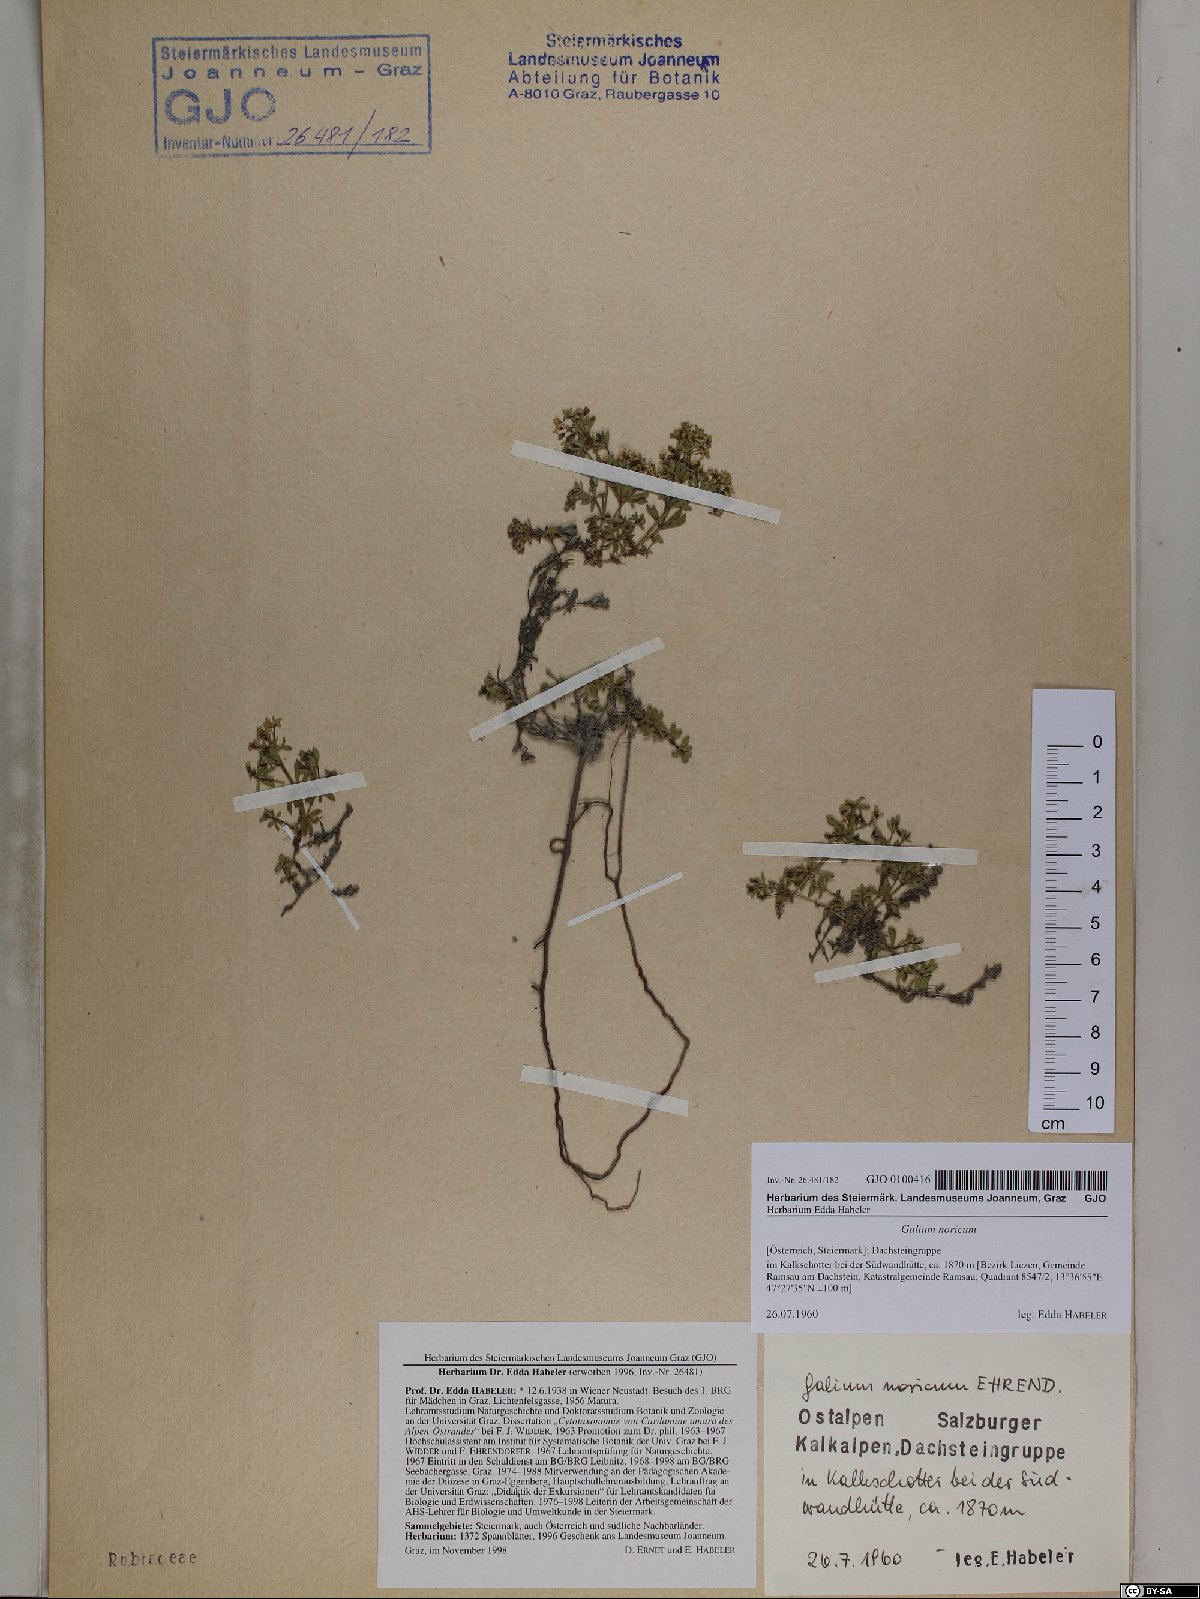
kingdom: Plantae
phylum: Tracheophyta
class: Magnoliopsida
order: Gentianales
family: Rubiaceae
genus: Galium
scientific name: Galium noricum
